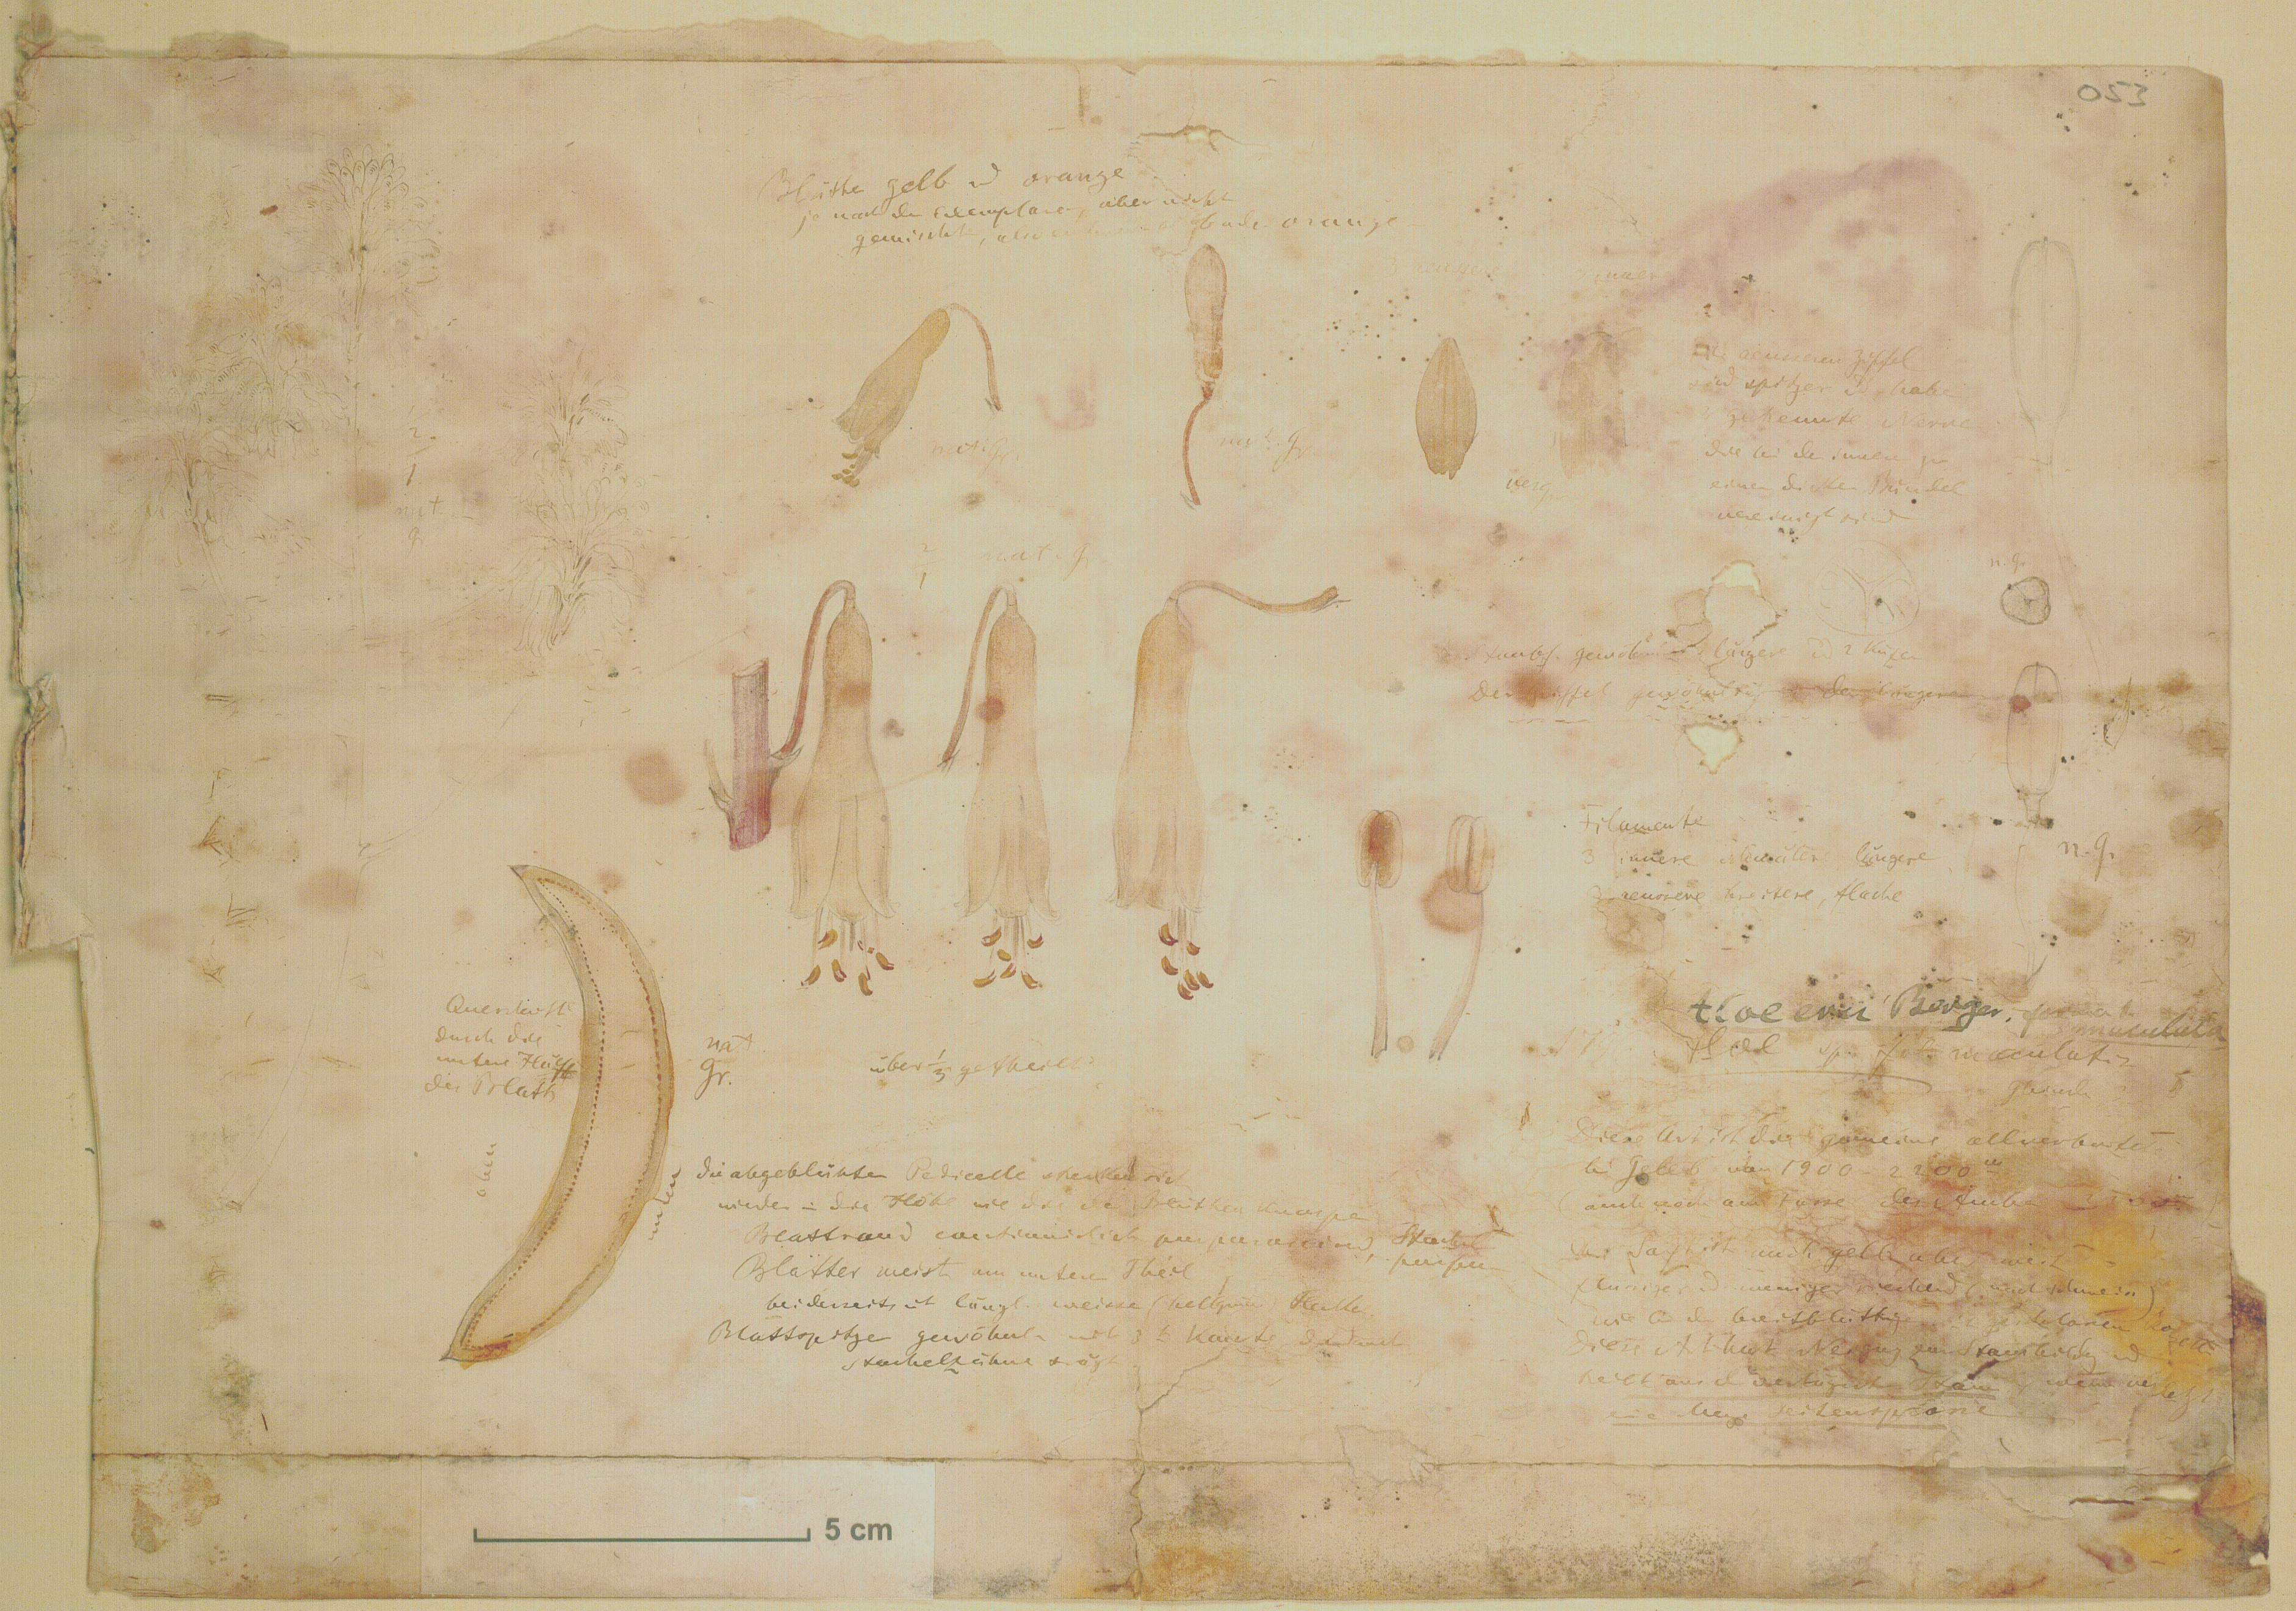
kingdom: Plantae
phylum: Tracheophyta
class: Liliopsida
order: Asparagales
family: Asphodelaceae
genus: Aloe
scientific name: Aloe camperi
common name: Camper's aloe
